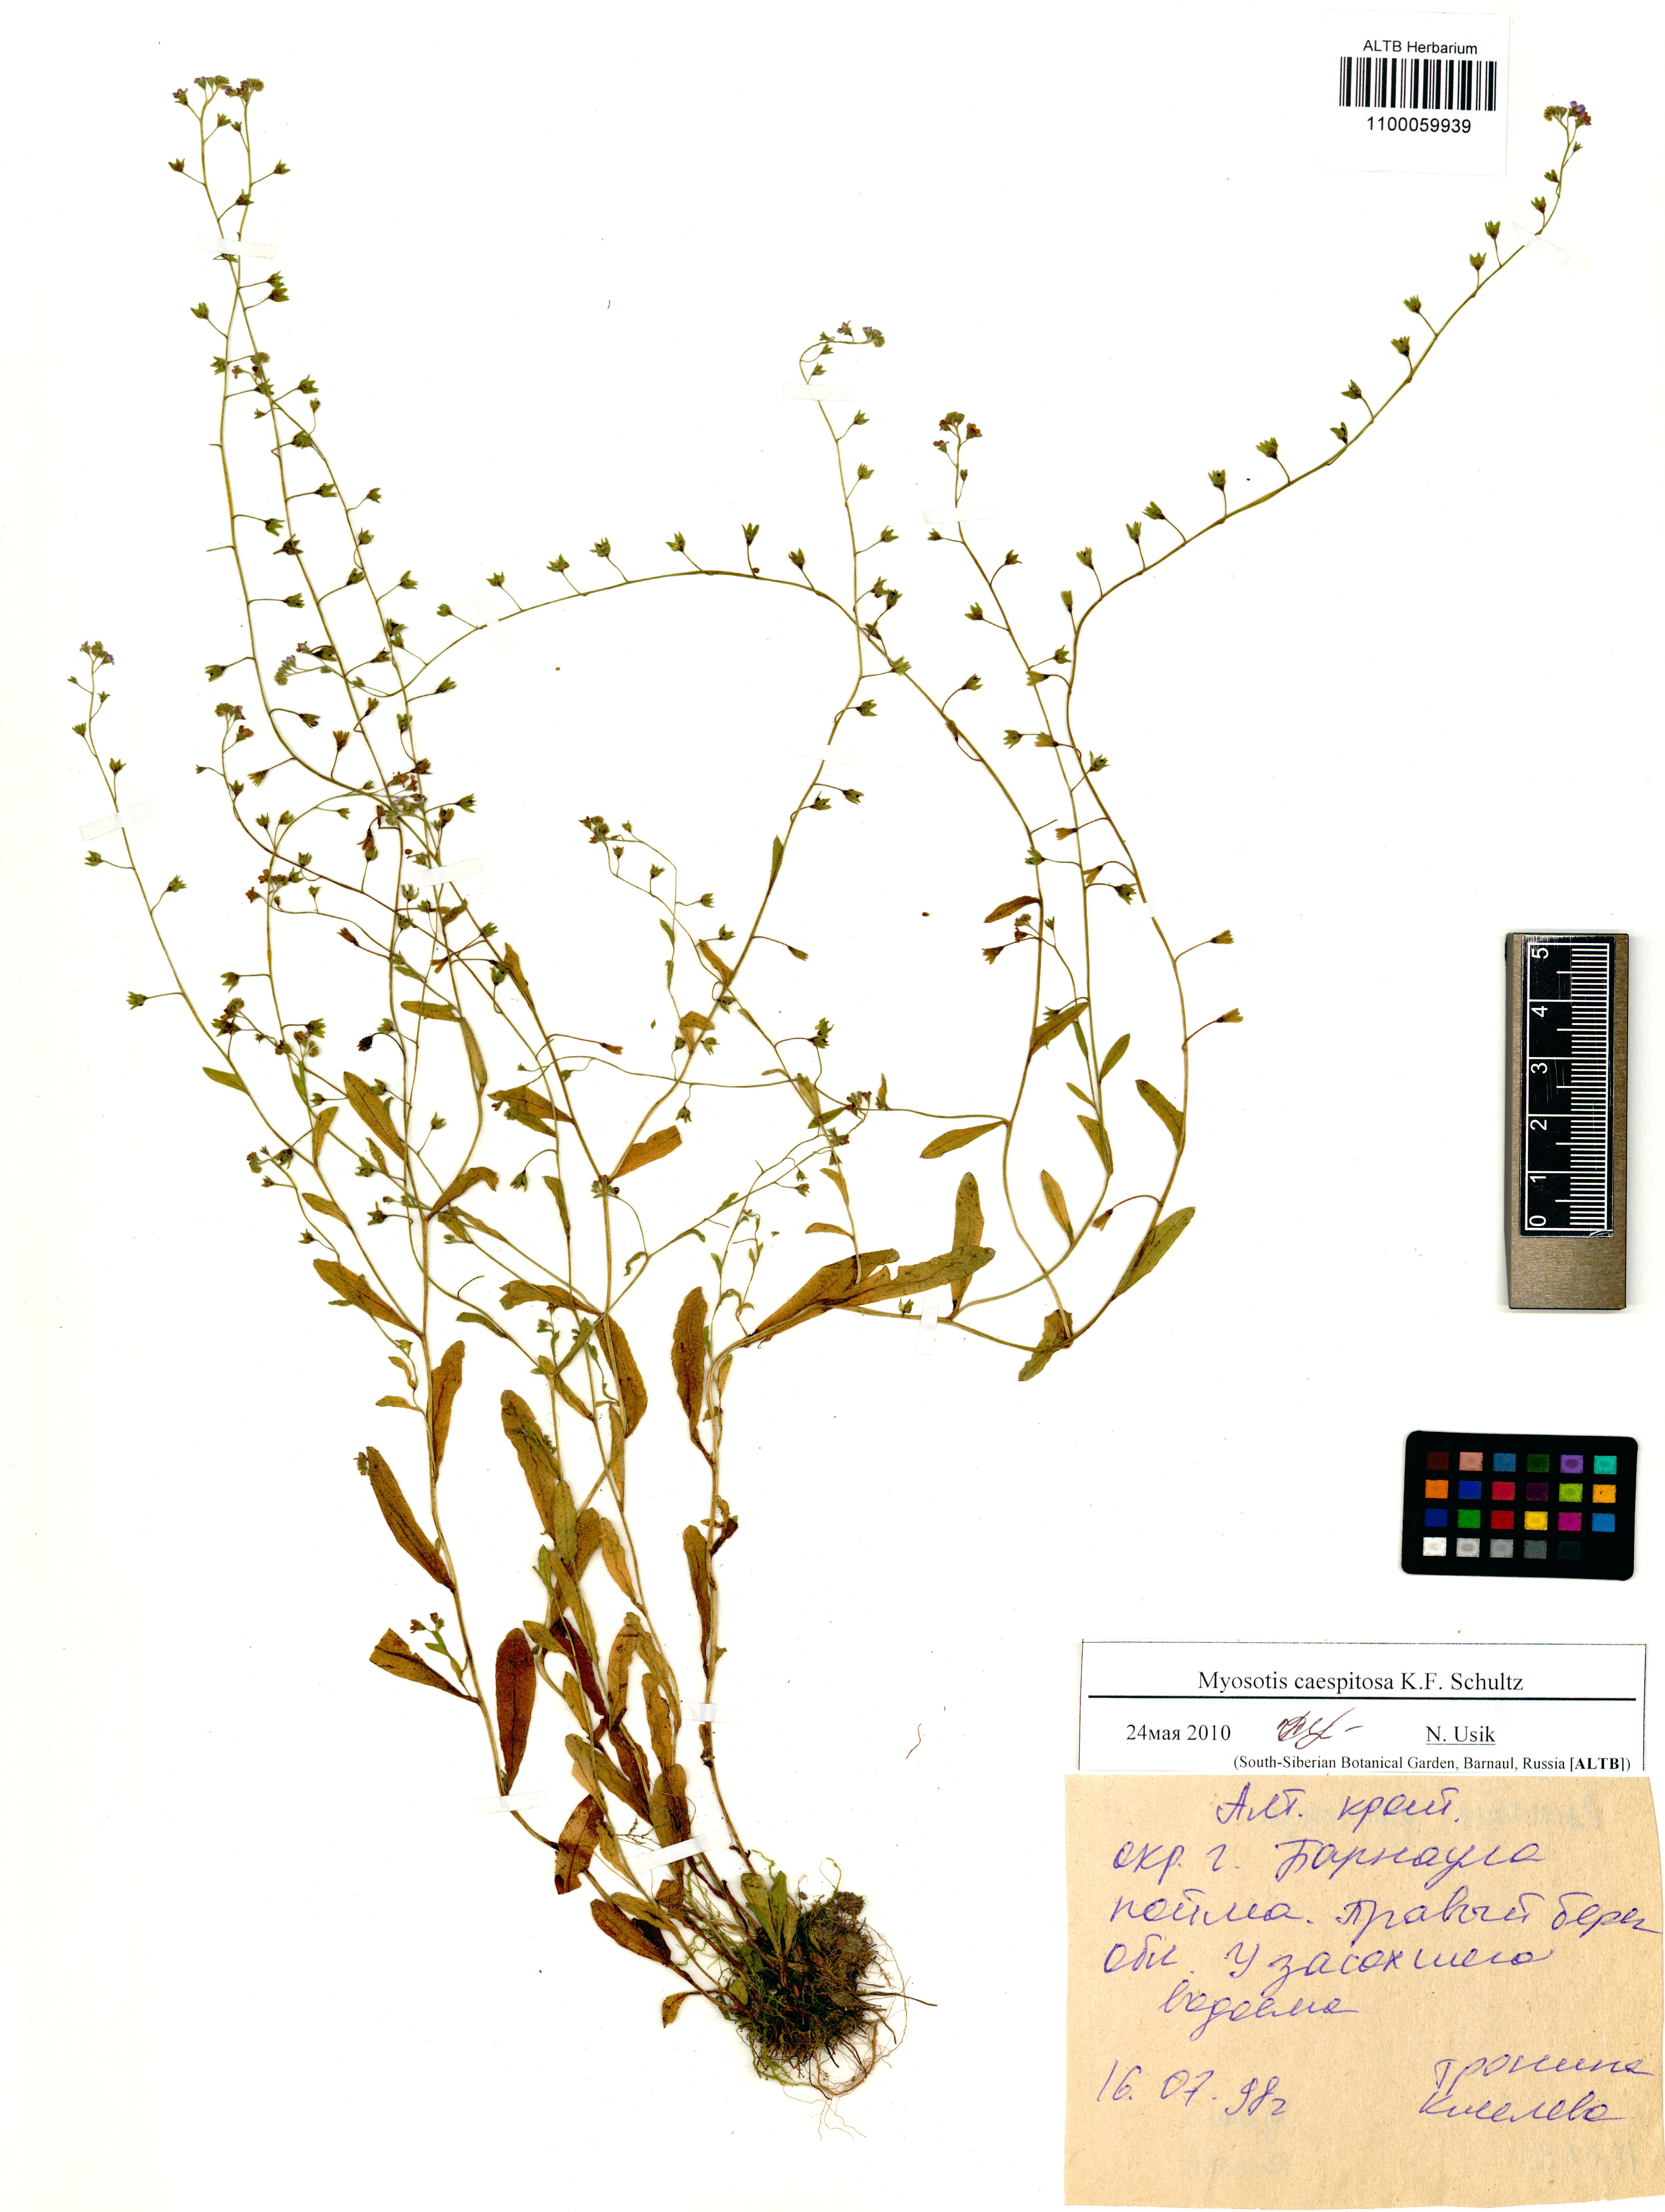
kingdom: Plantae
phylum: Tracheophyta
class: Magnoliopsida
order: Boraginales
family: Boraginaceae
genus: Myosotis
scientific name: Myosotis laxa
